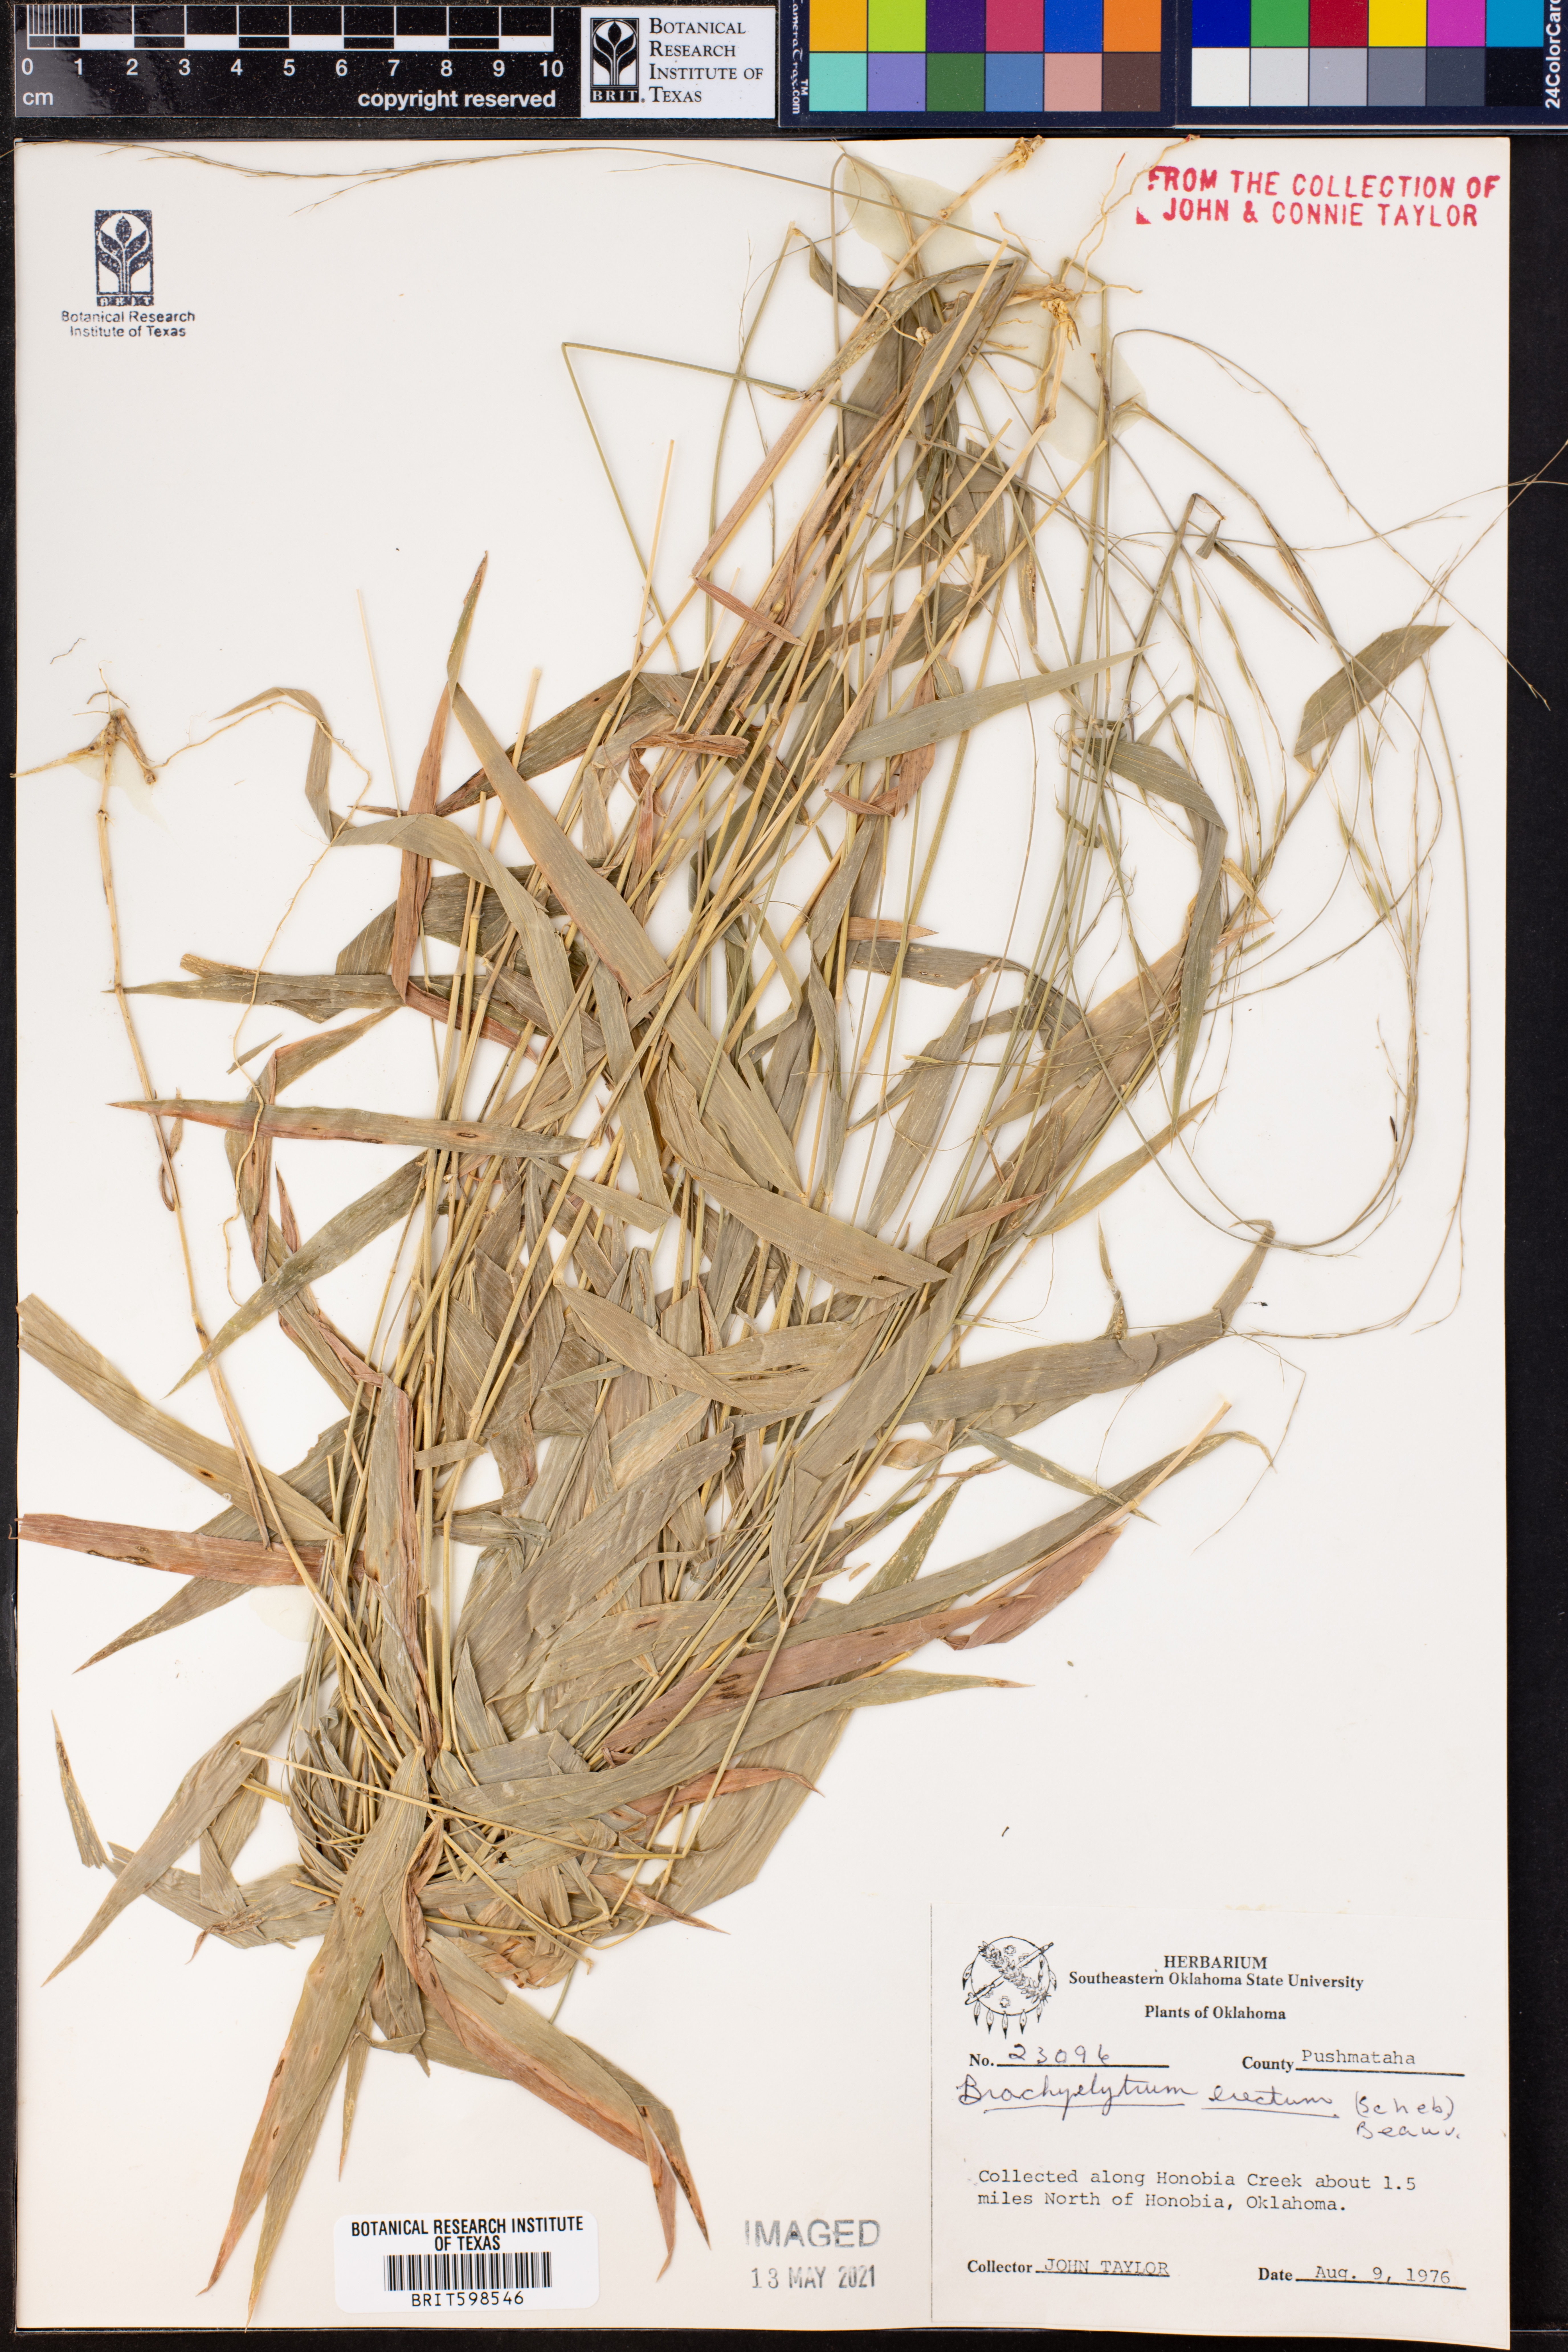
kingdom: Plantae
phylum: Tracheophyta
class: Liliopsida
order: Poales
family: Poaceae
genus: Brachyelytrum
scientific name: Brachyelytrum erectum
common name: Bearded shorthusk
